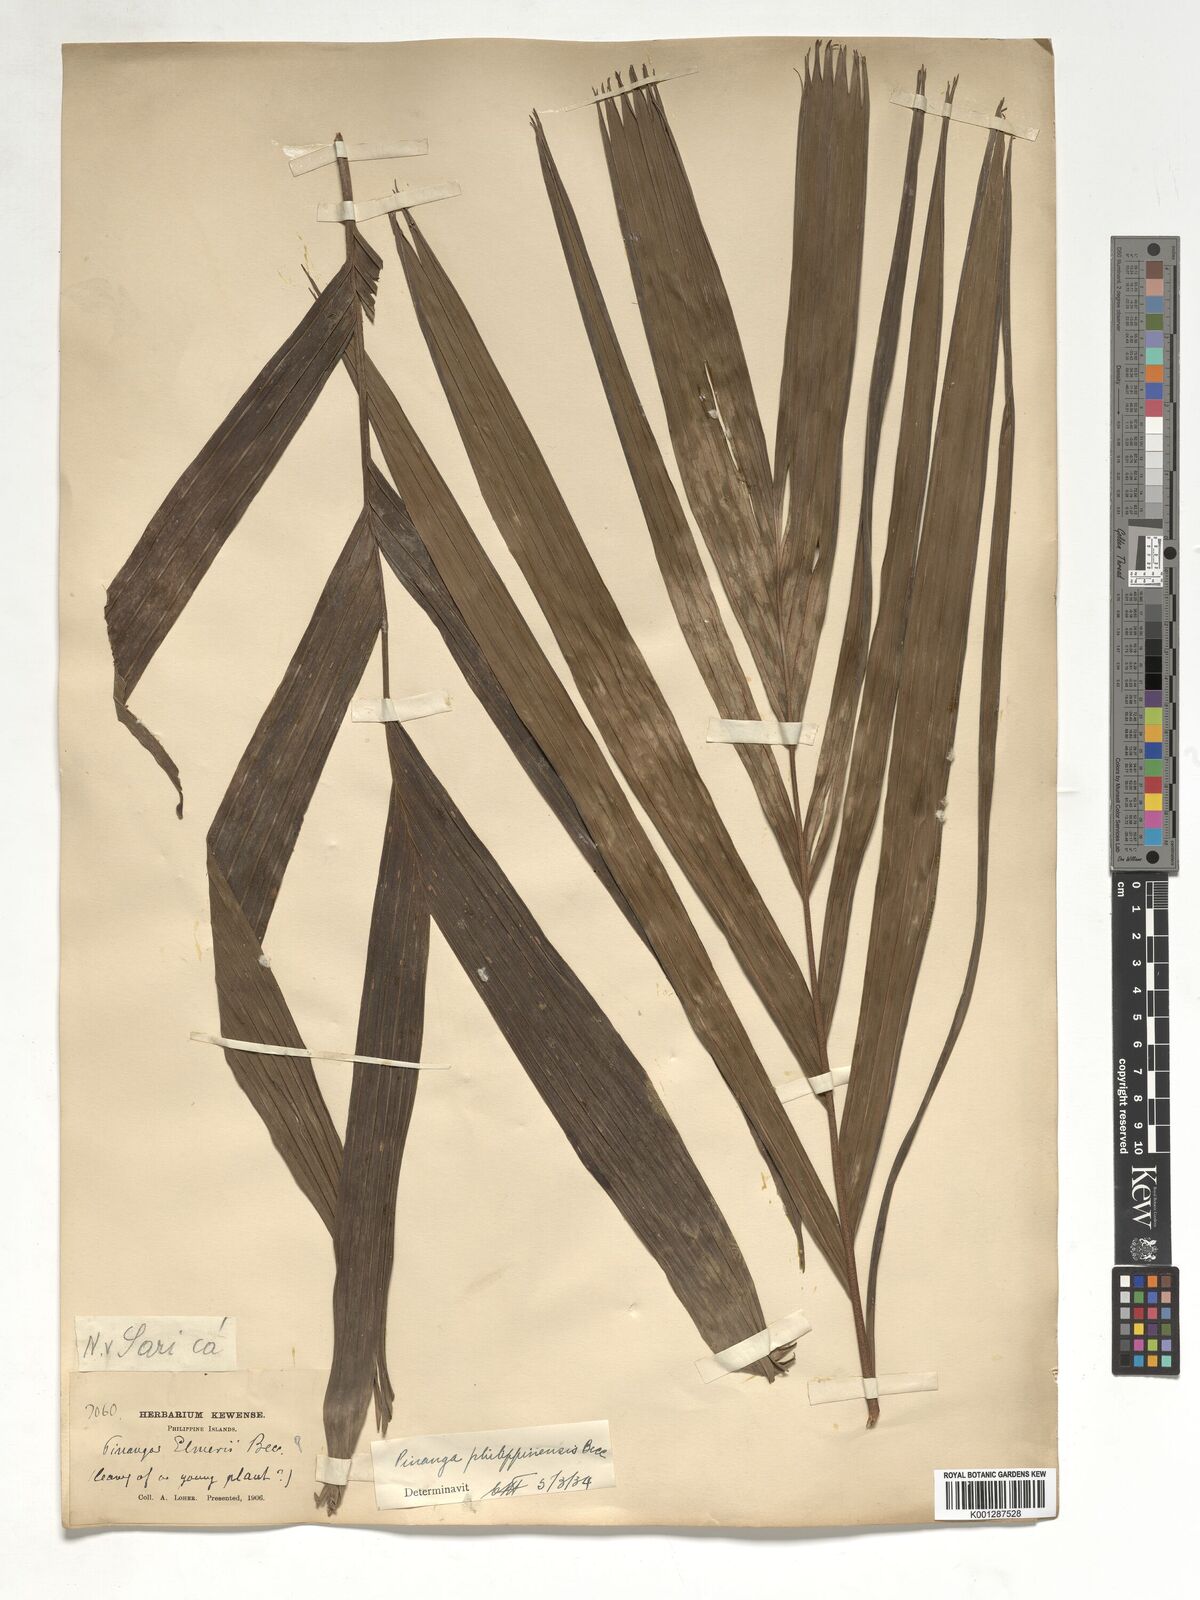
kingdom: Plantae
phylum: Tracheophyta
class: Liliopsida
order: Arecales
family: Arecaceae
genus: Pinanga
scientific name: Pinanga philippinensis
